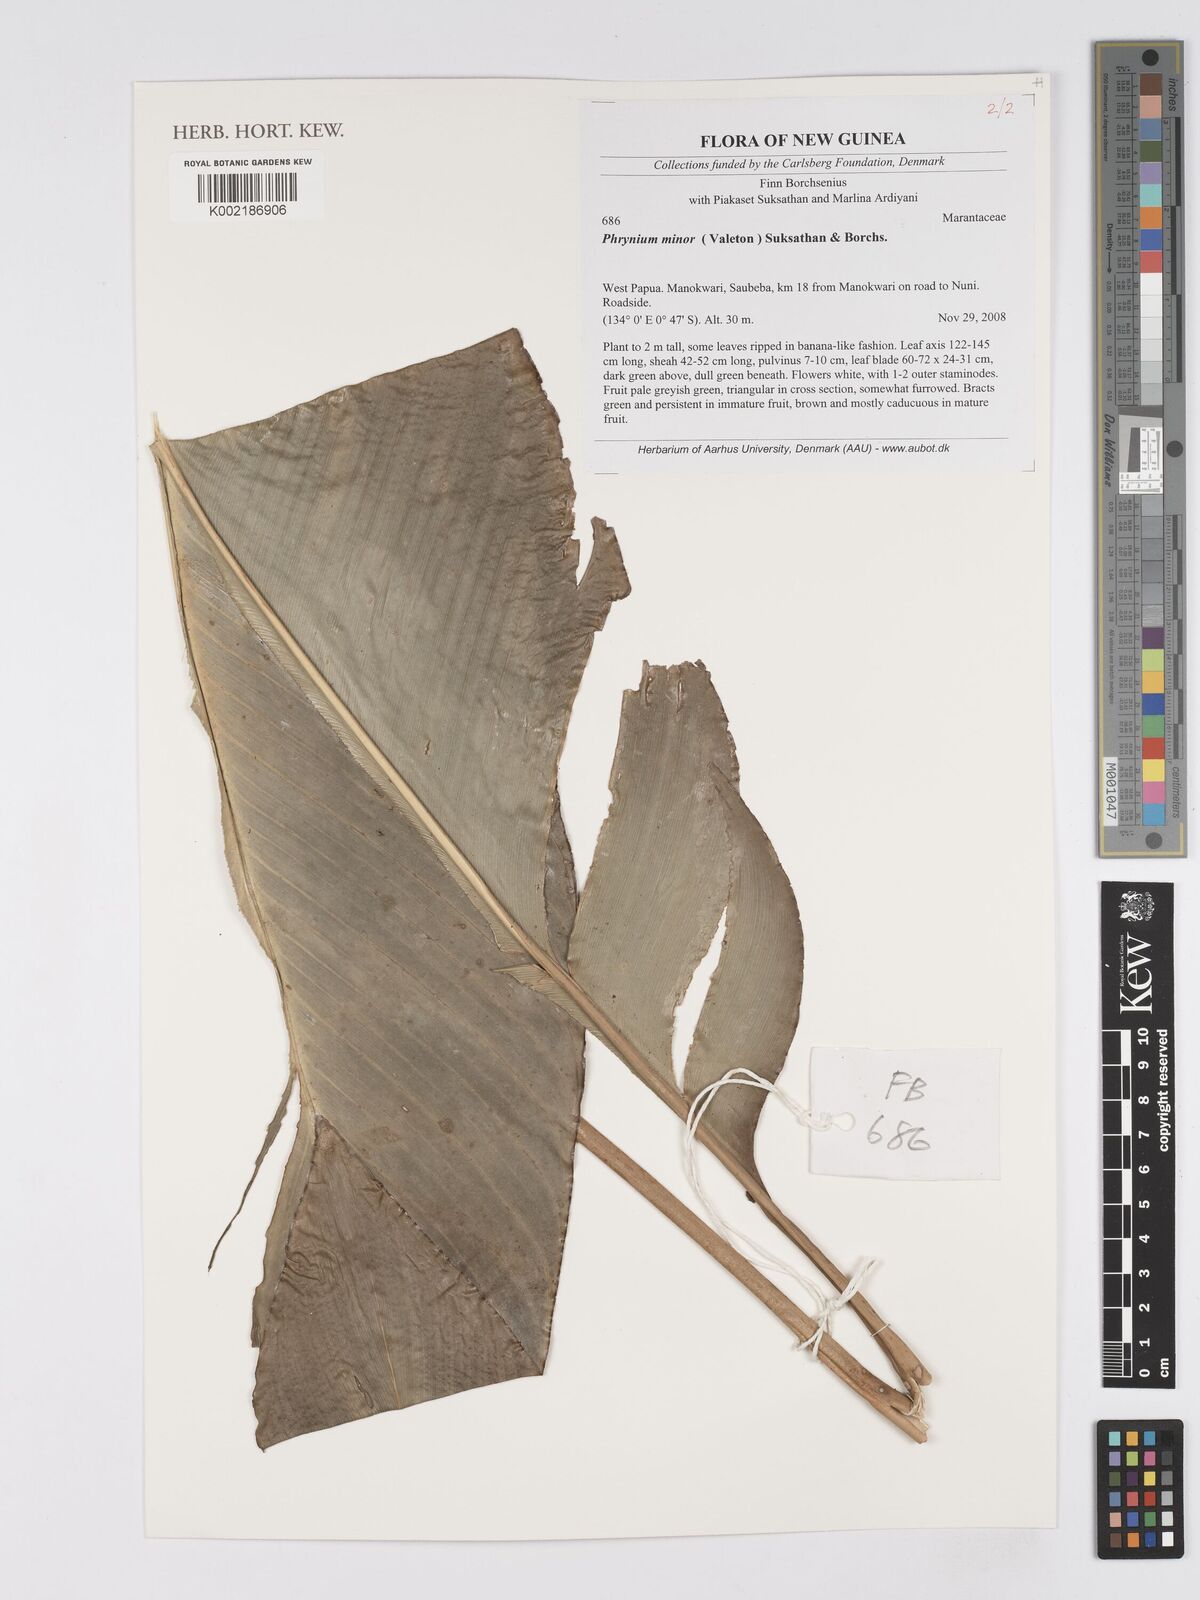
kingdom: Plantae
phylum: Tracheophyta
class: Liliopsida
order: Zingiberales
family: Marantaceae
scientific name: Marantaceae
